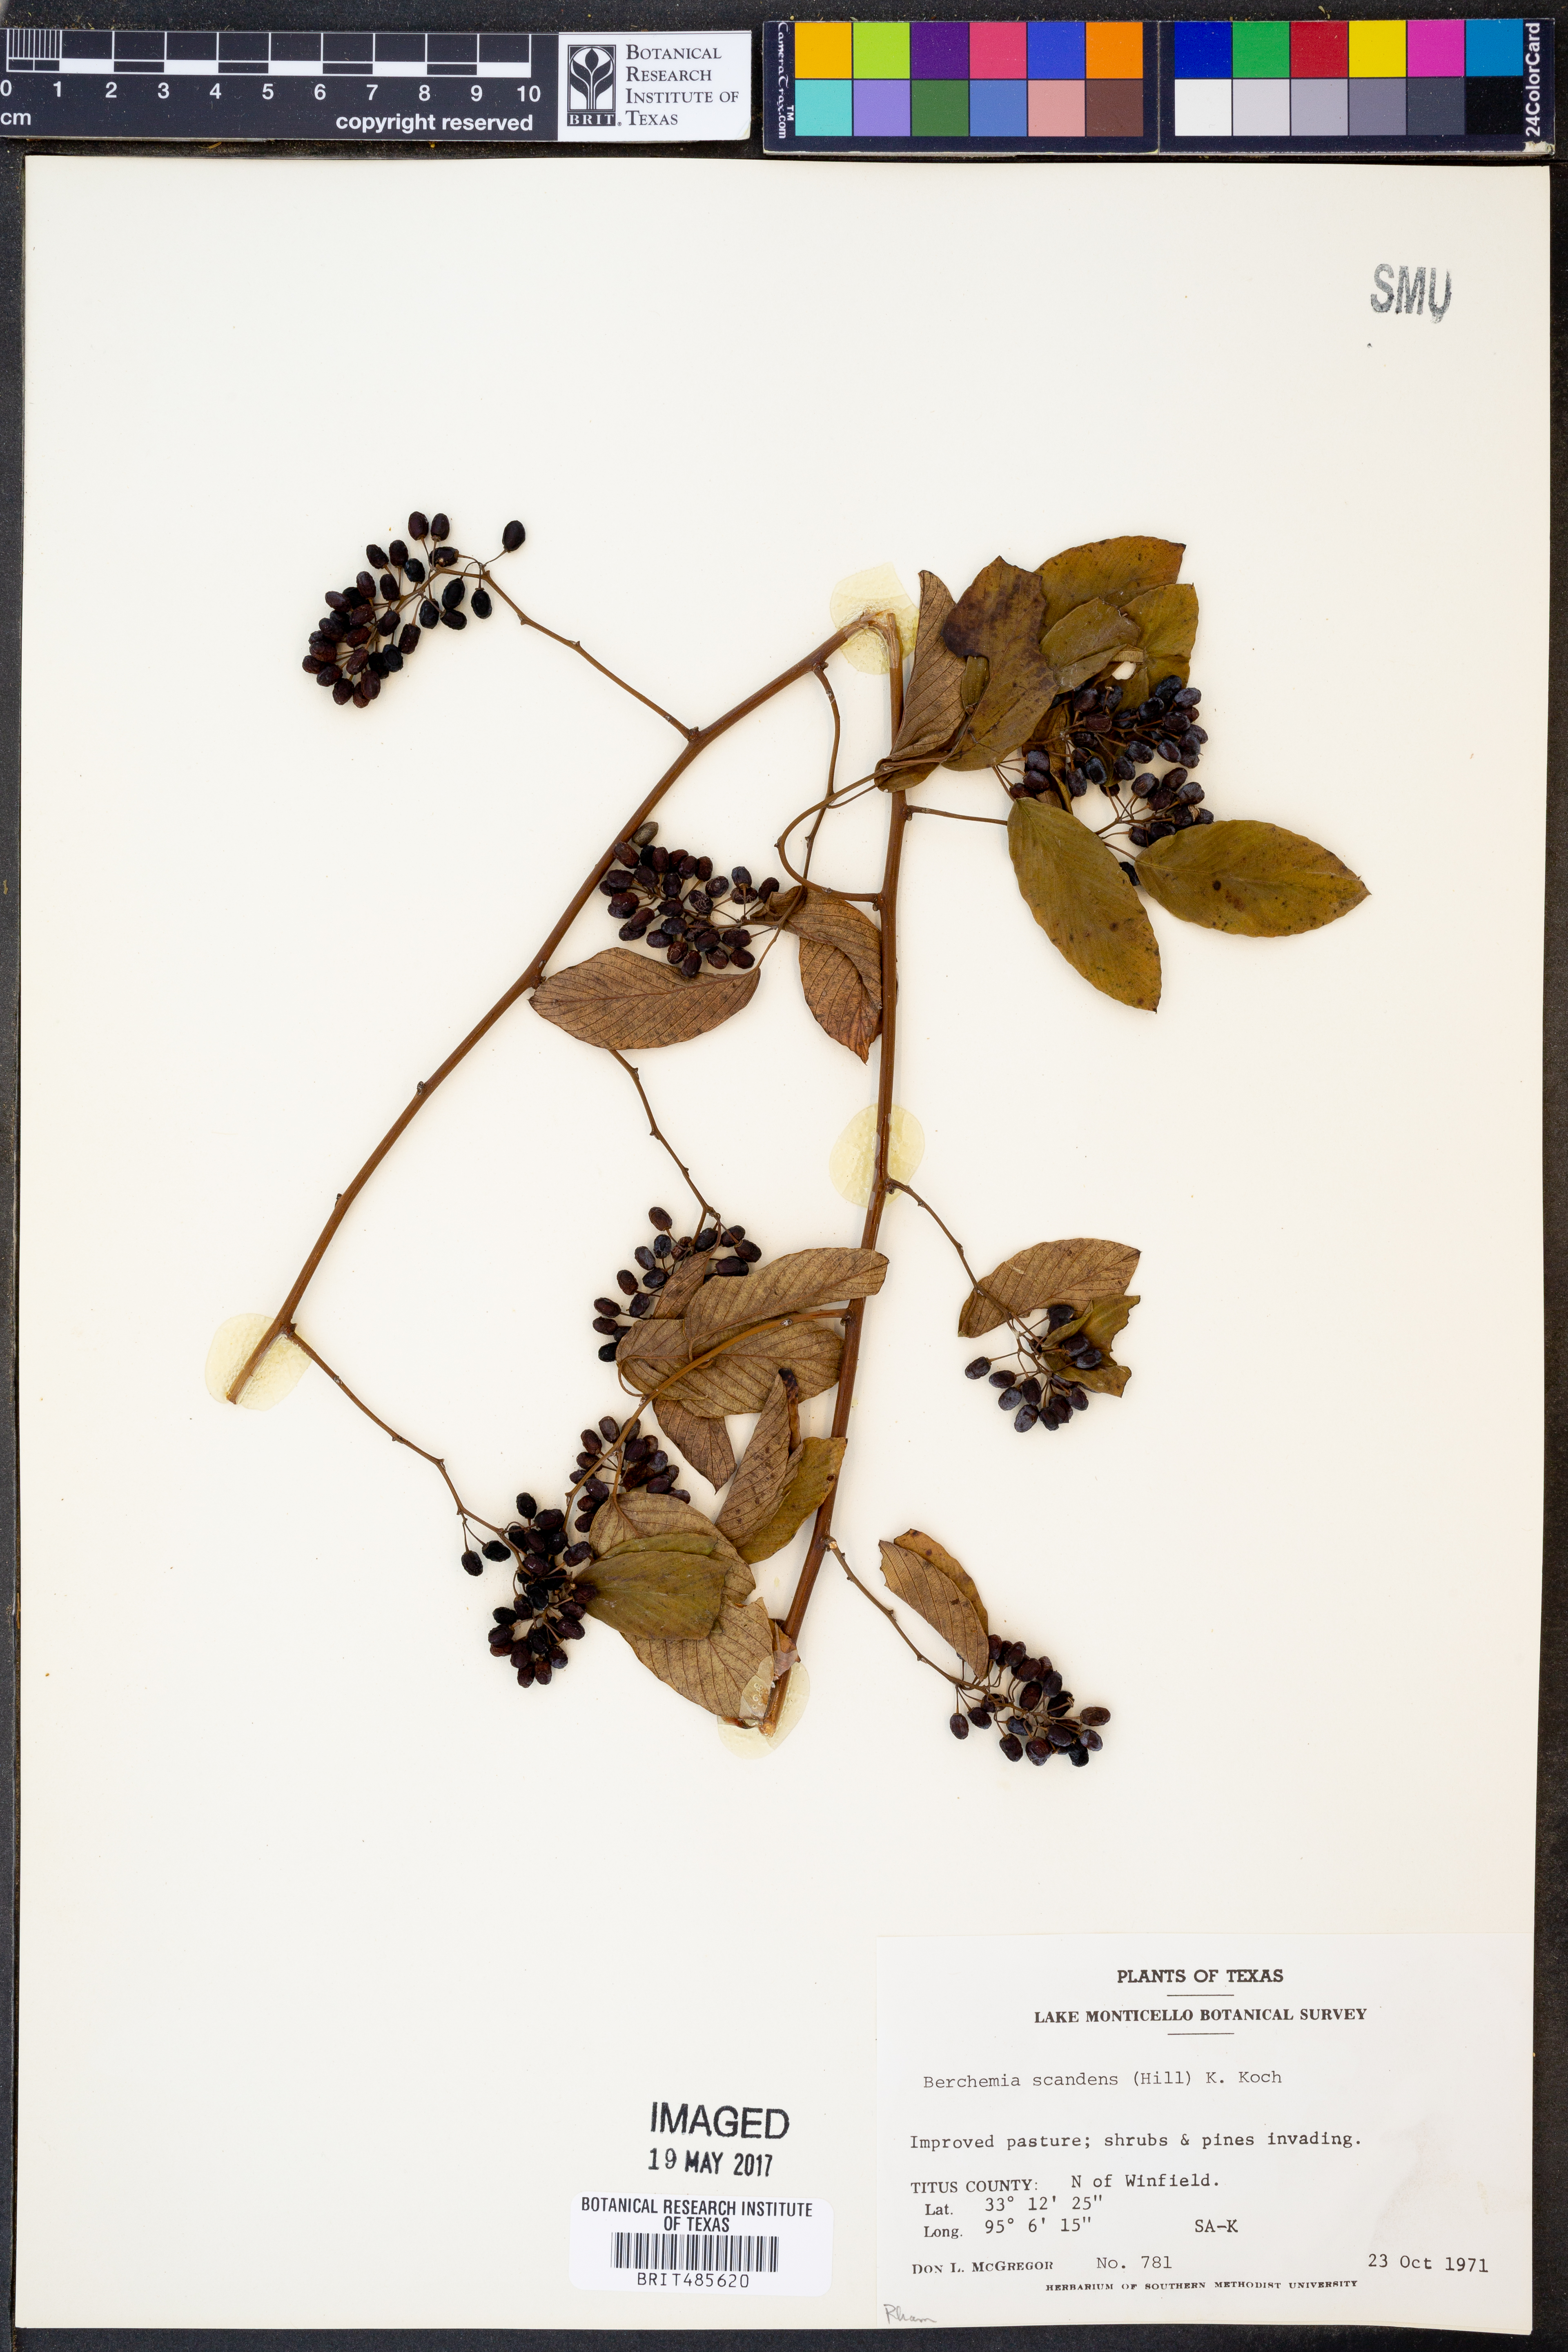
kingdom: Plantae
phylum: Tracheophyta
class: Magnoliopsida
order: Rosales
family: Rhamnaceae
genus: Berchemia
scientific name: Berchemia scandens
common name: Supplejack
